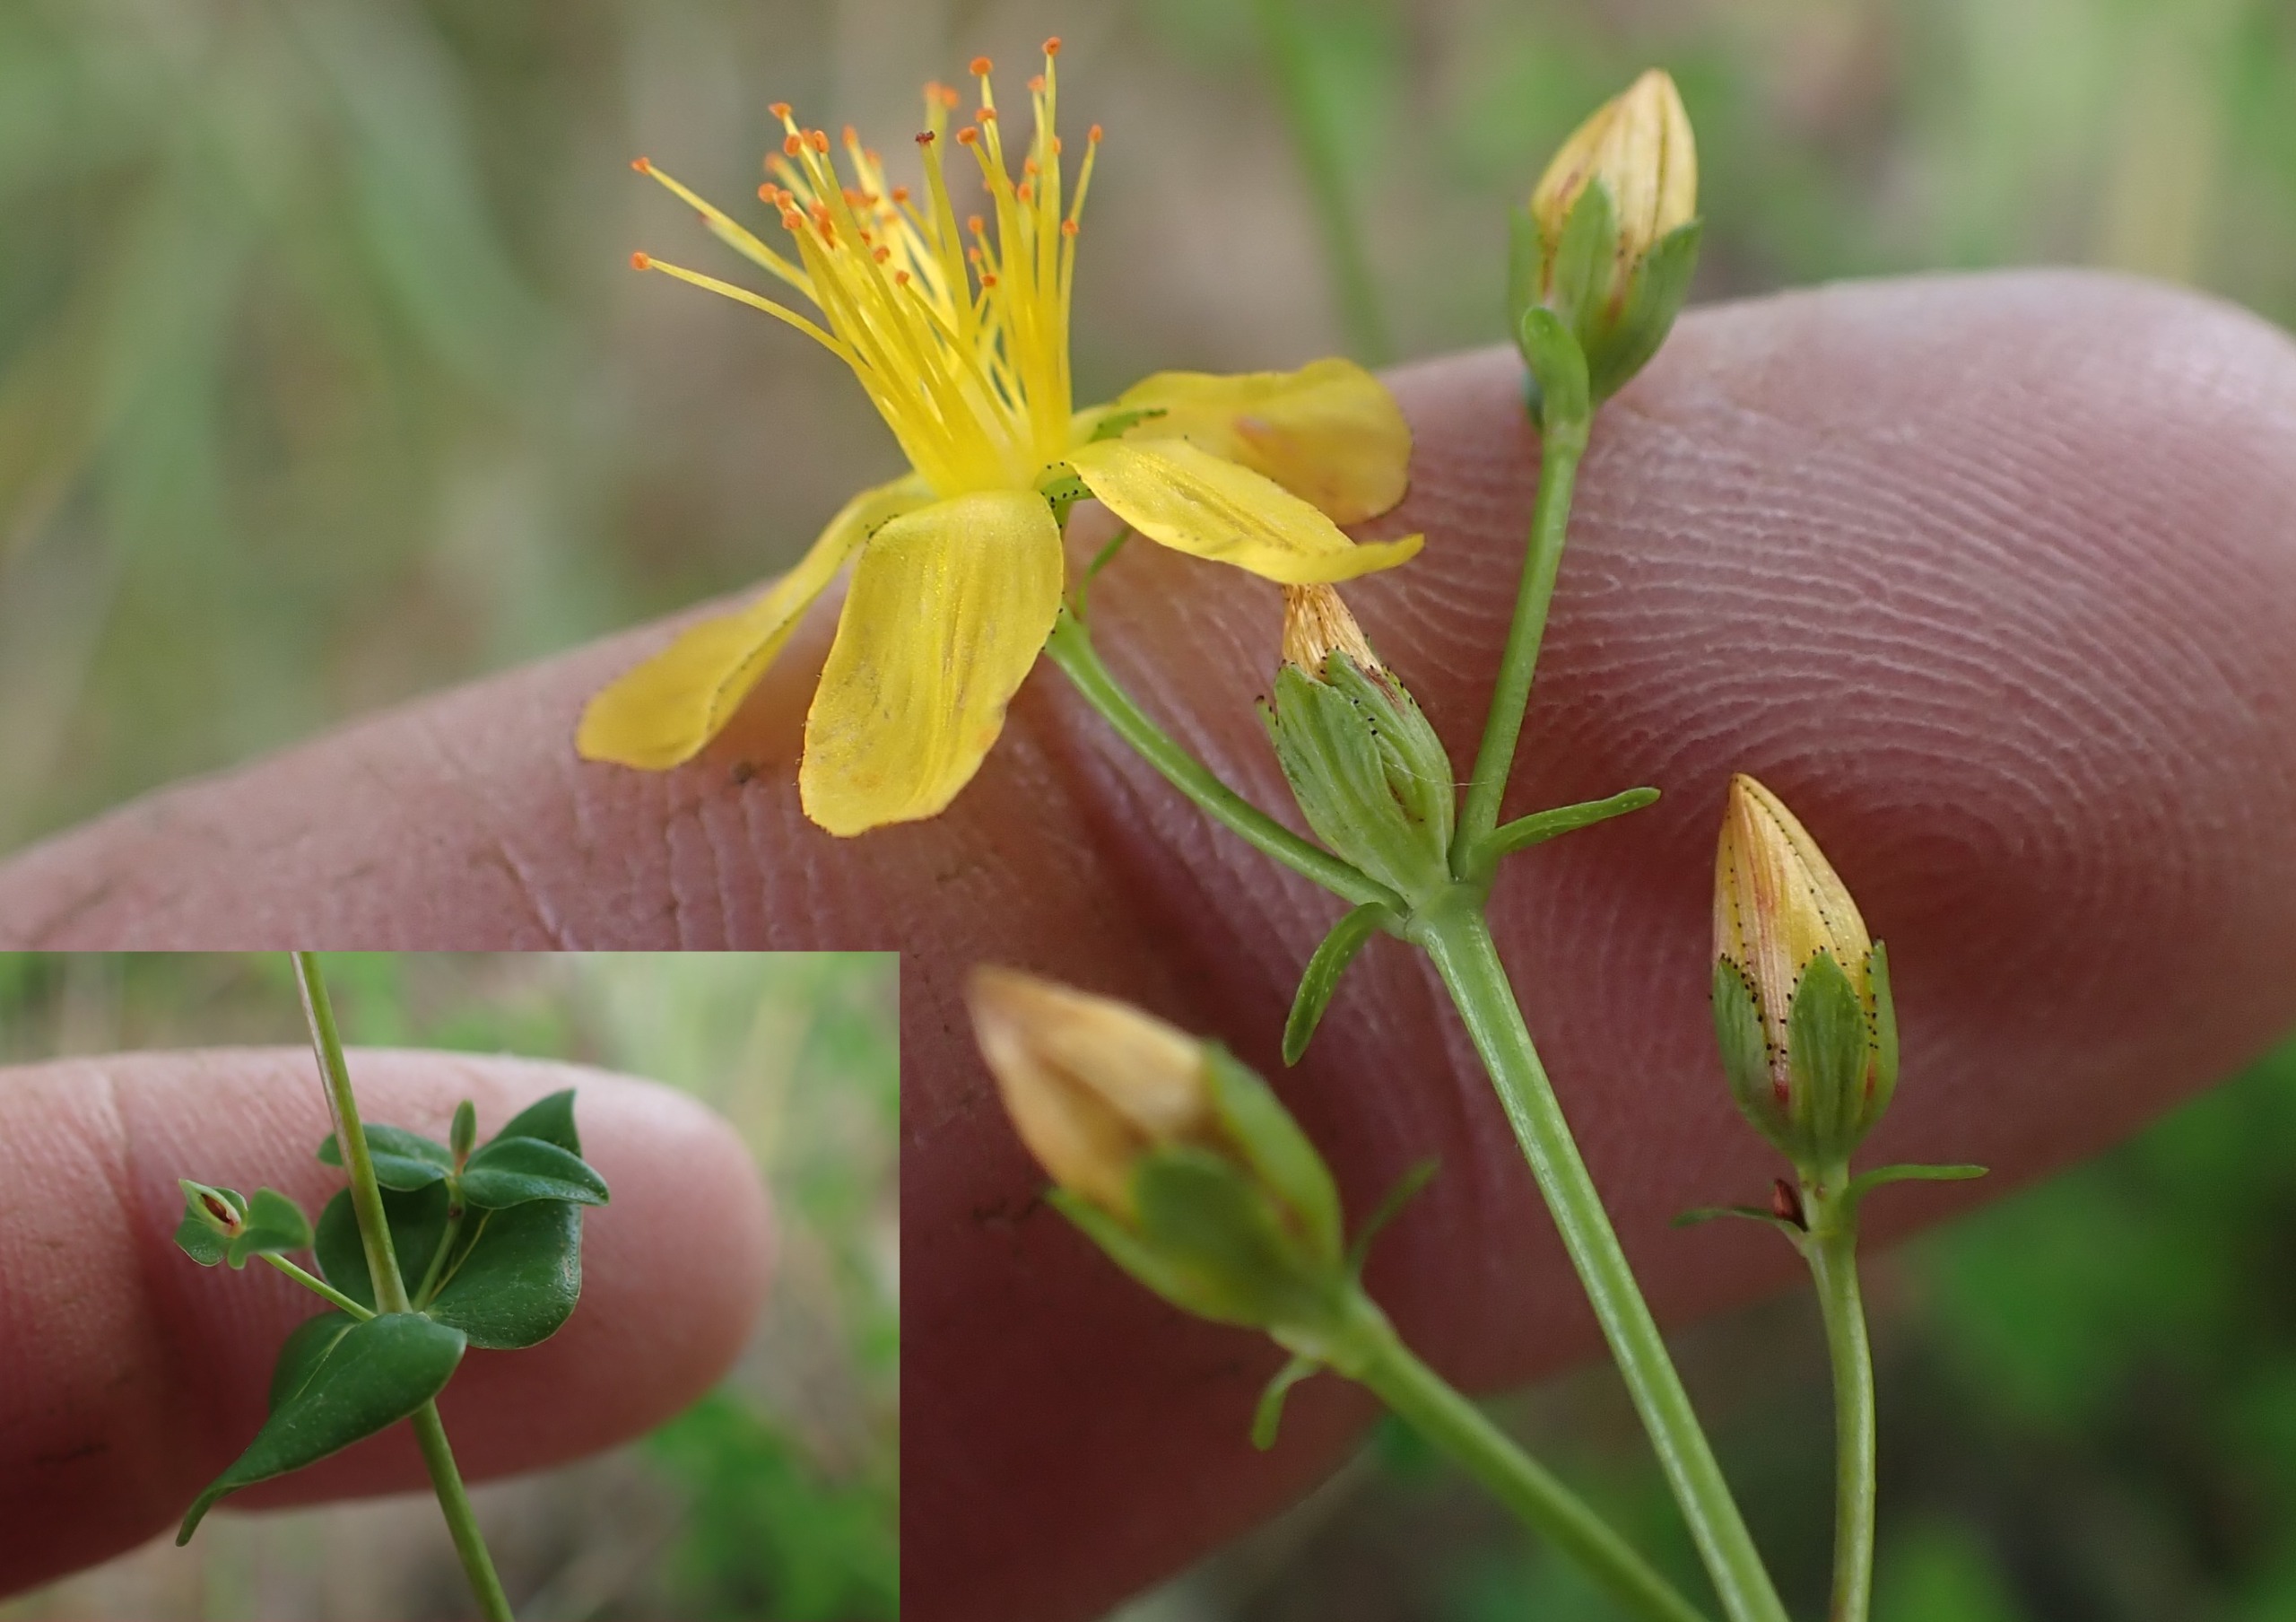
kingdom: Plantae
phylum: Tracheophyta
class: Magnoliopsida
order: Malpighiales
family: Hypericaceae
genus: Hypericum
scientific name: Hypericum pulchrum
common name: Smuk perikon
